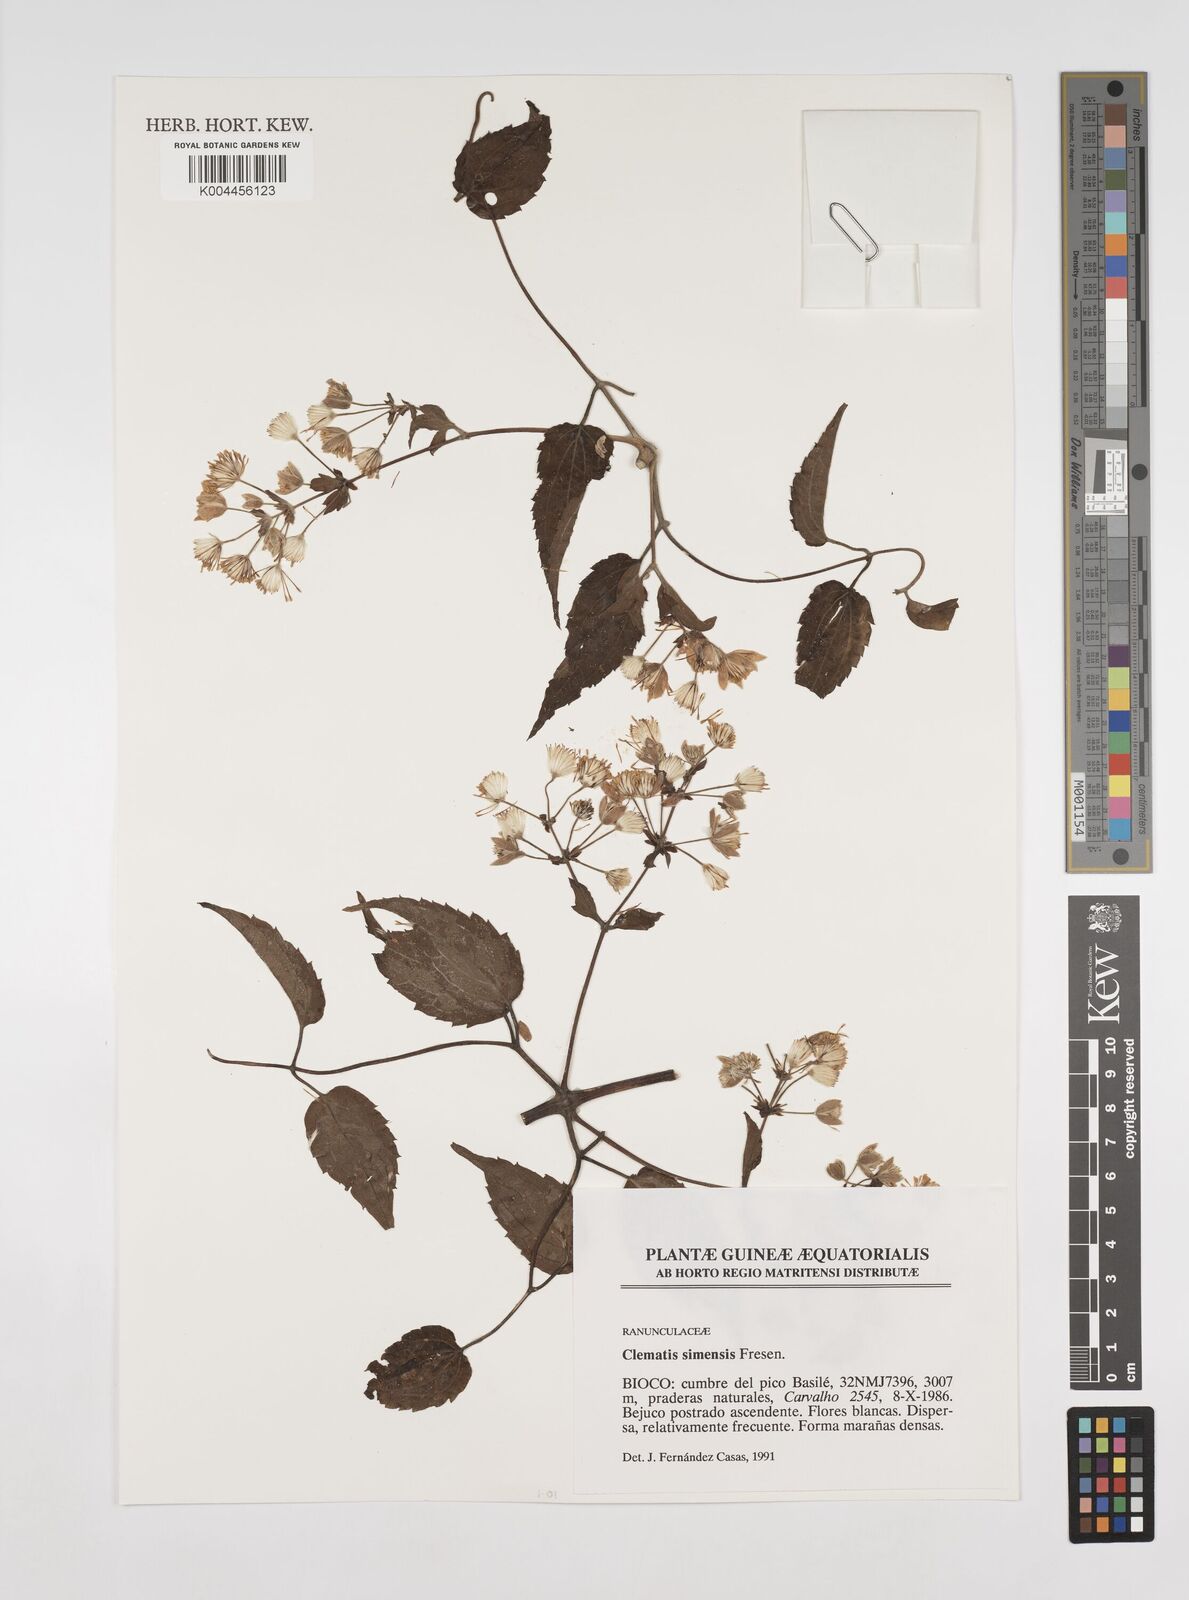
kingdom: Plantae
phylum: Tracheophyta
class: Magnoliopsida
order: Ranunculales
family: Ranunculaceae
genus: Clematis
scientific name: Clematis simensis
